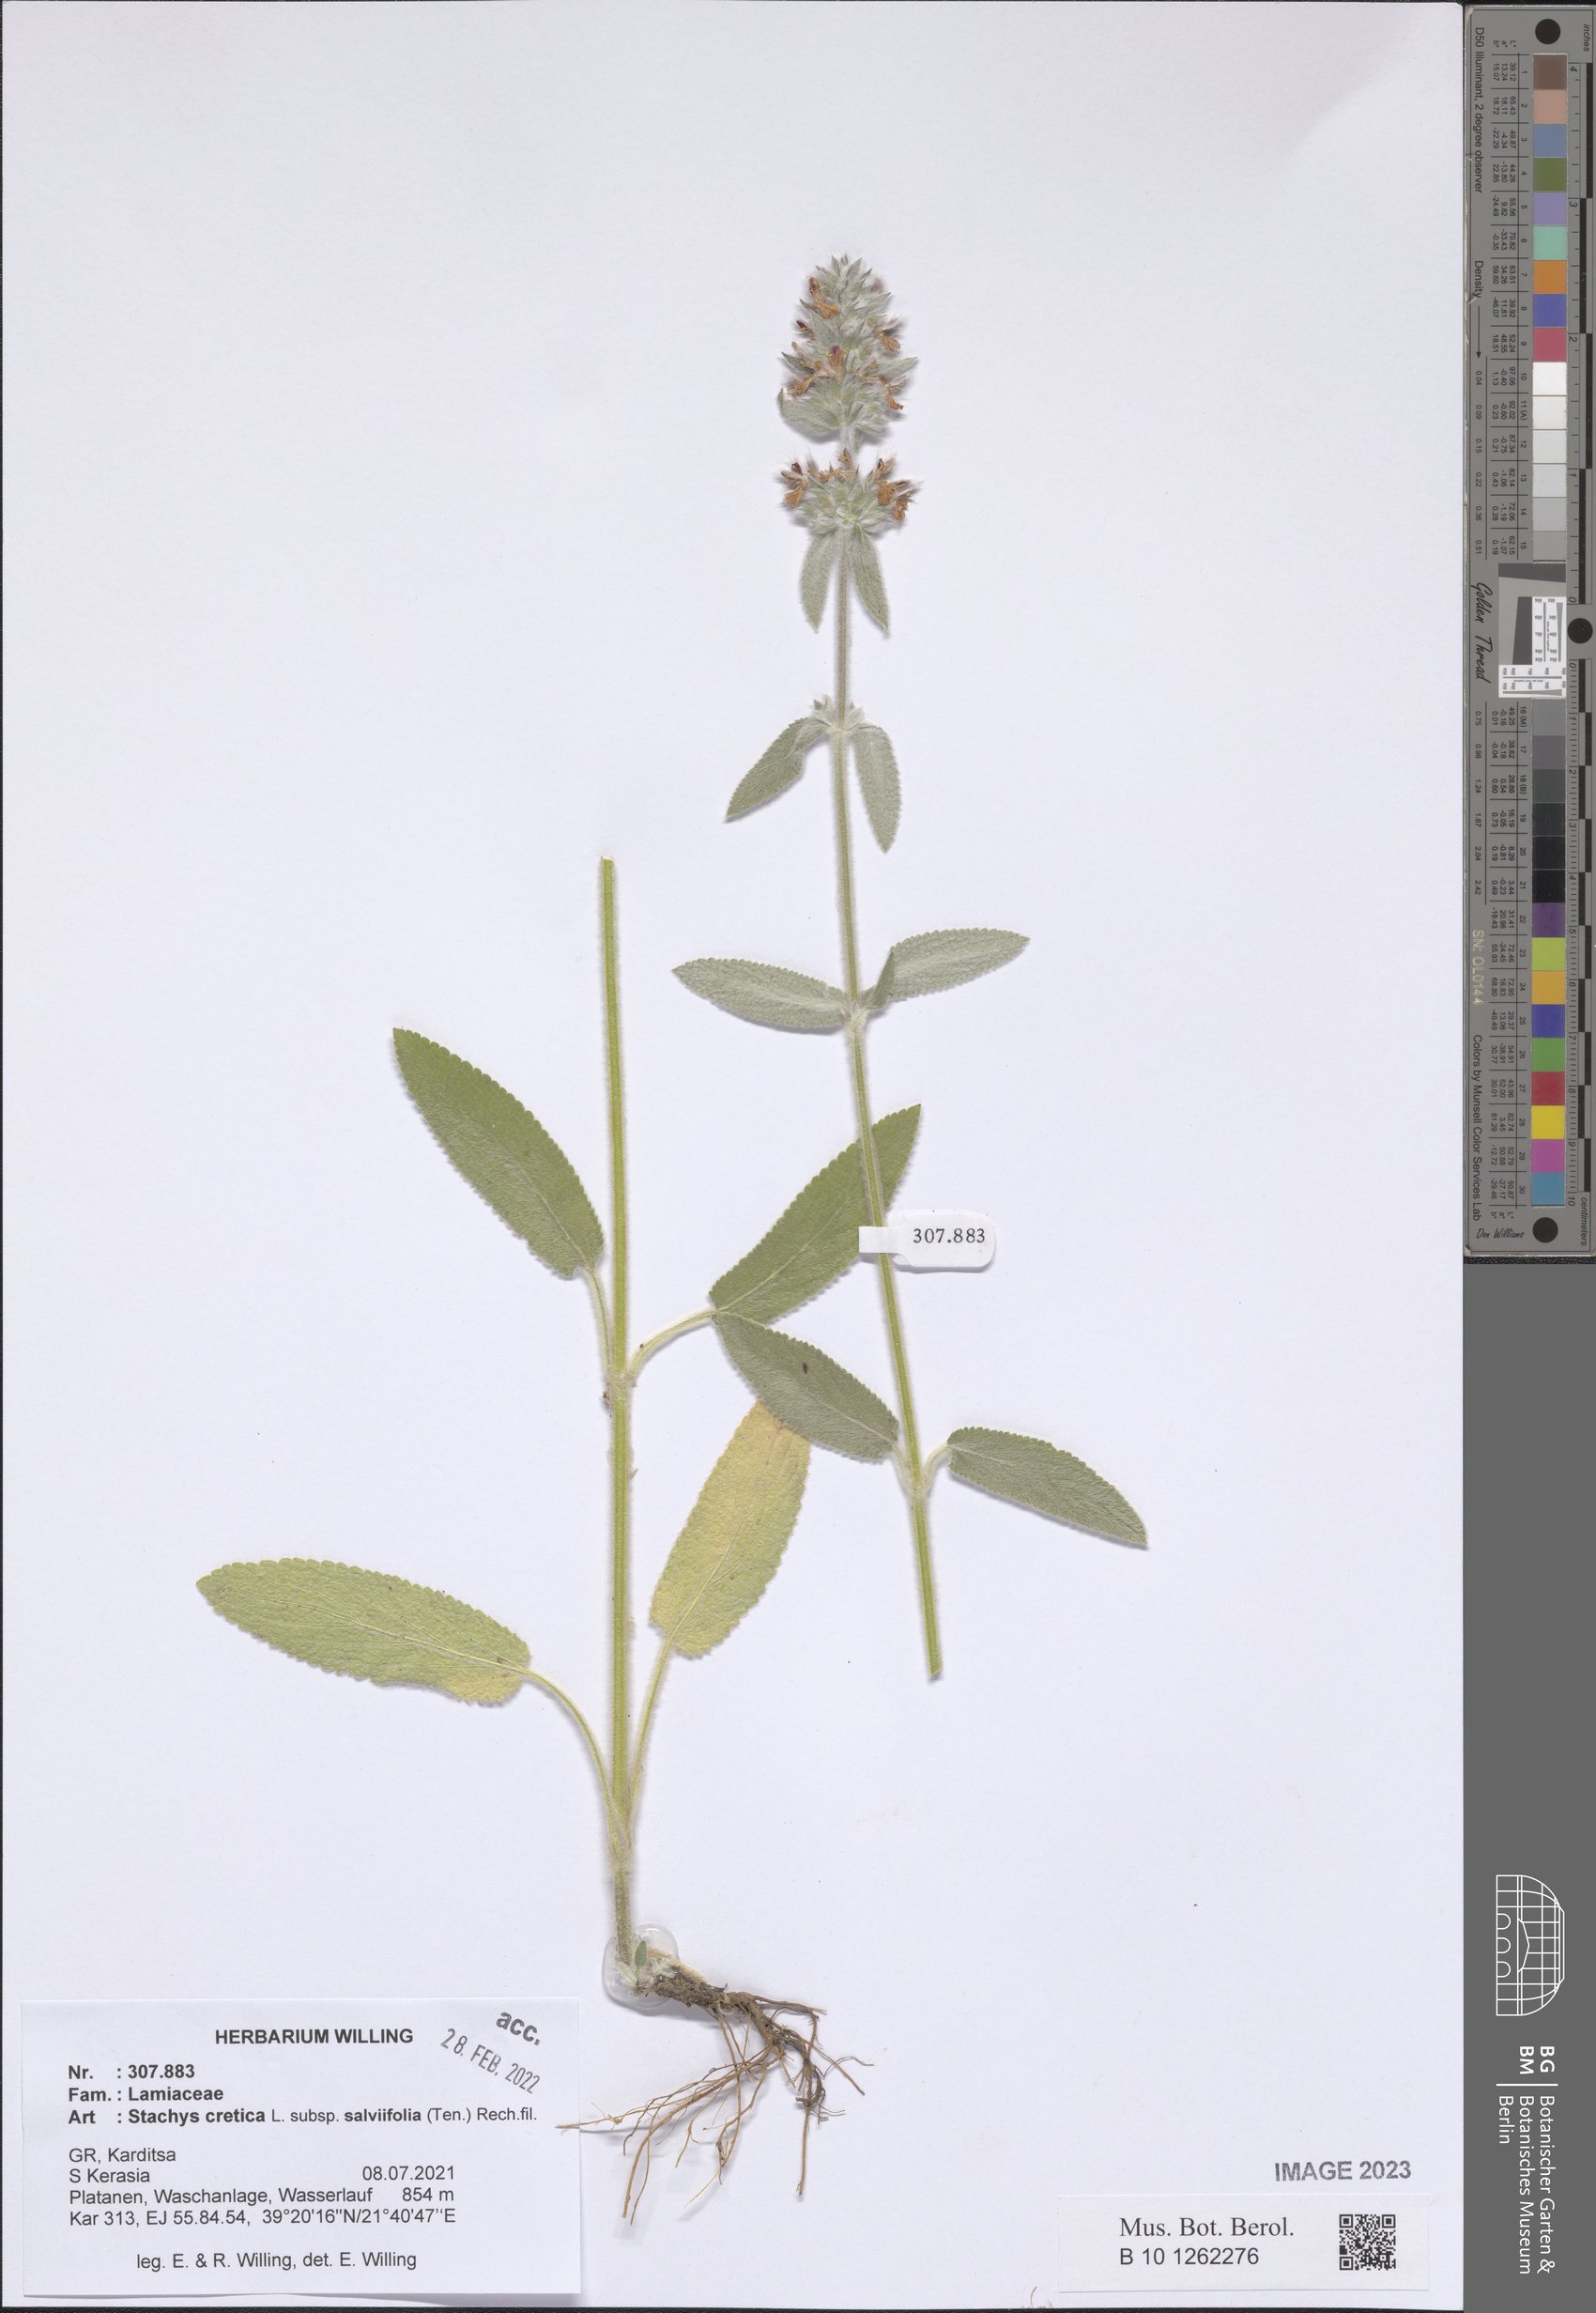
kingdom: Plantae
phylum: Tracheophyta
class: Magnoliopsida
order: Lamiales
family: Lamiaceae
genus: Stachys
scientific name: Stachys cretica
